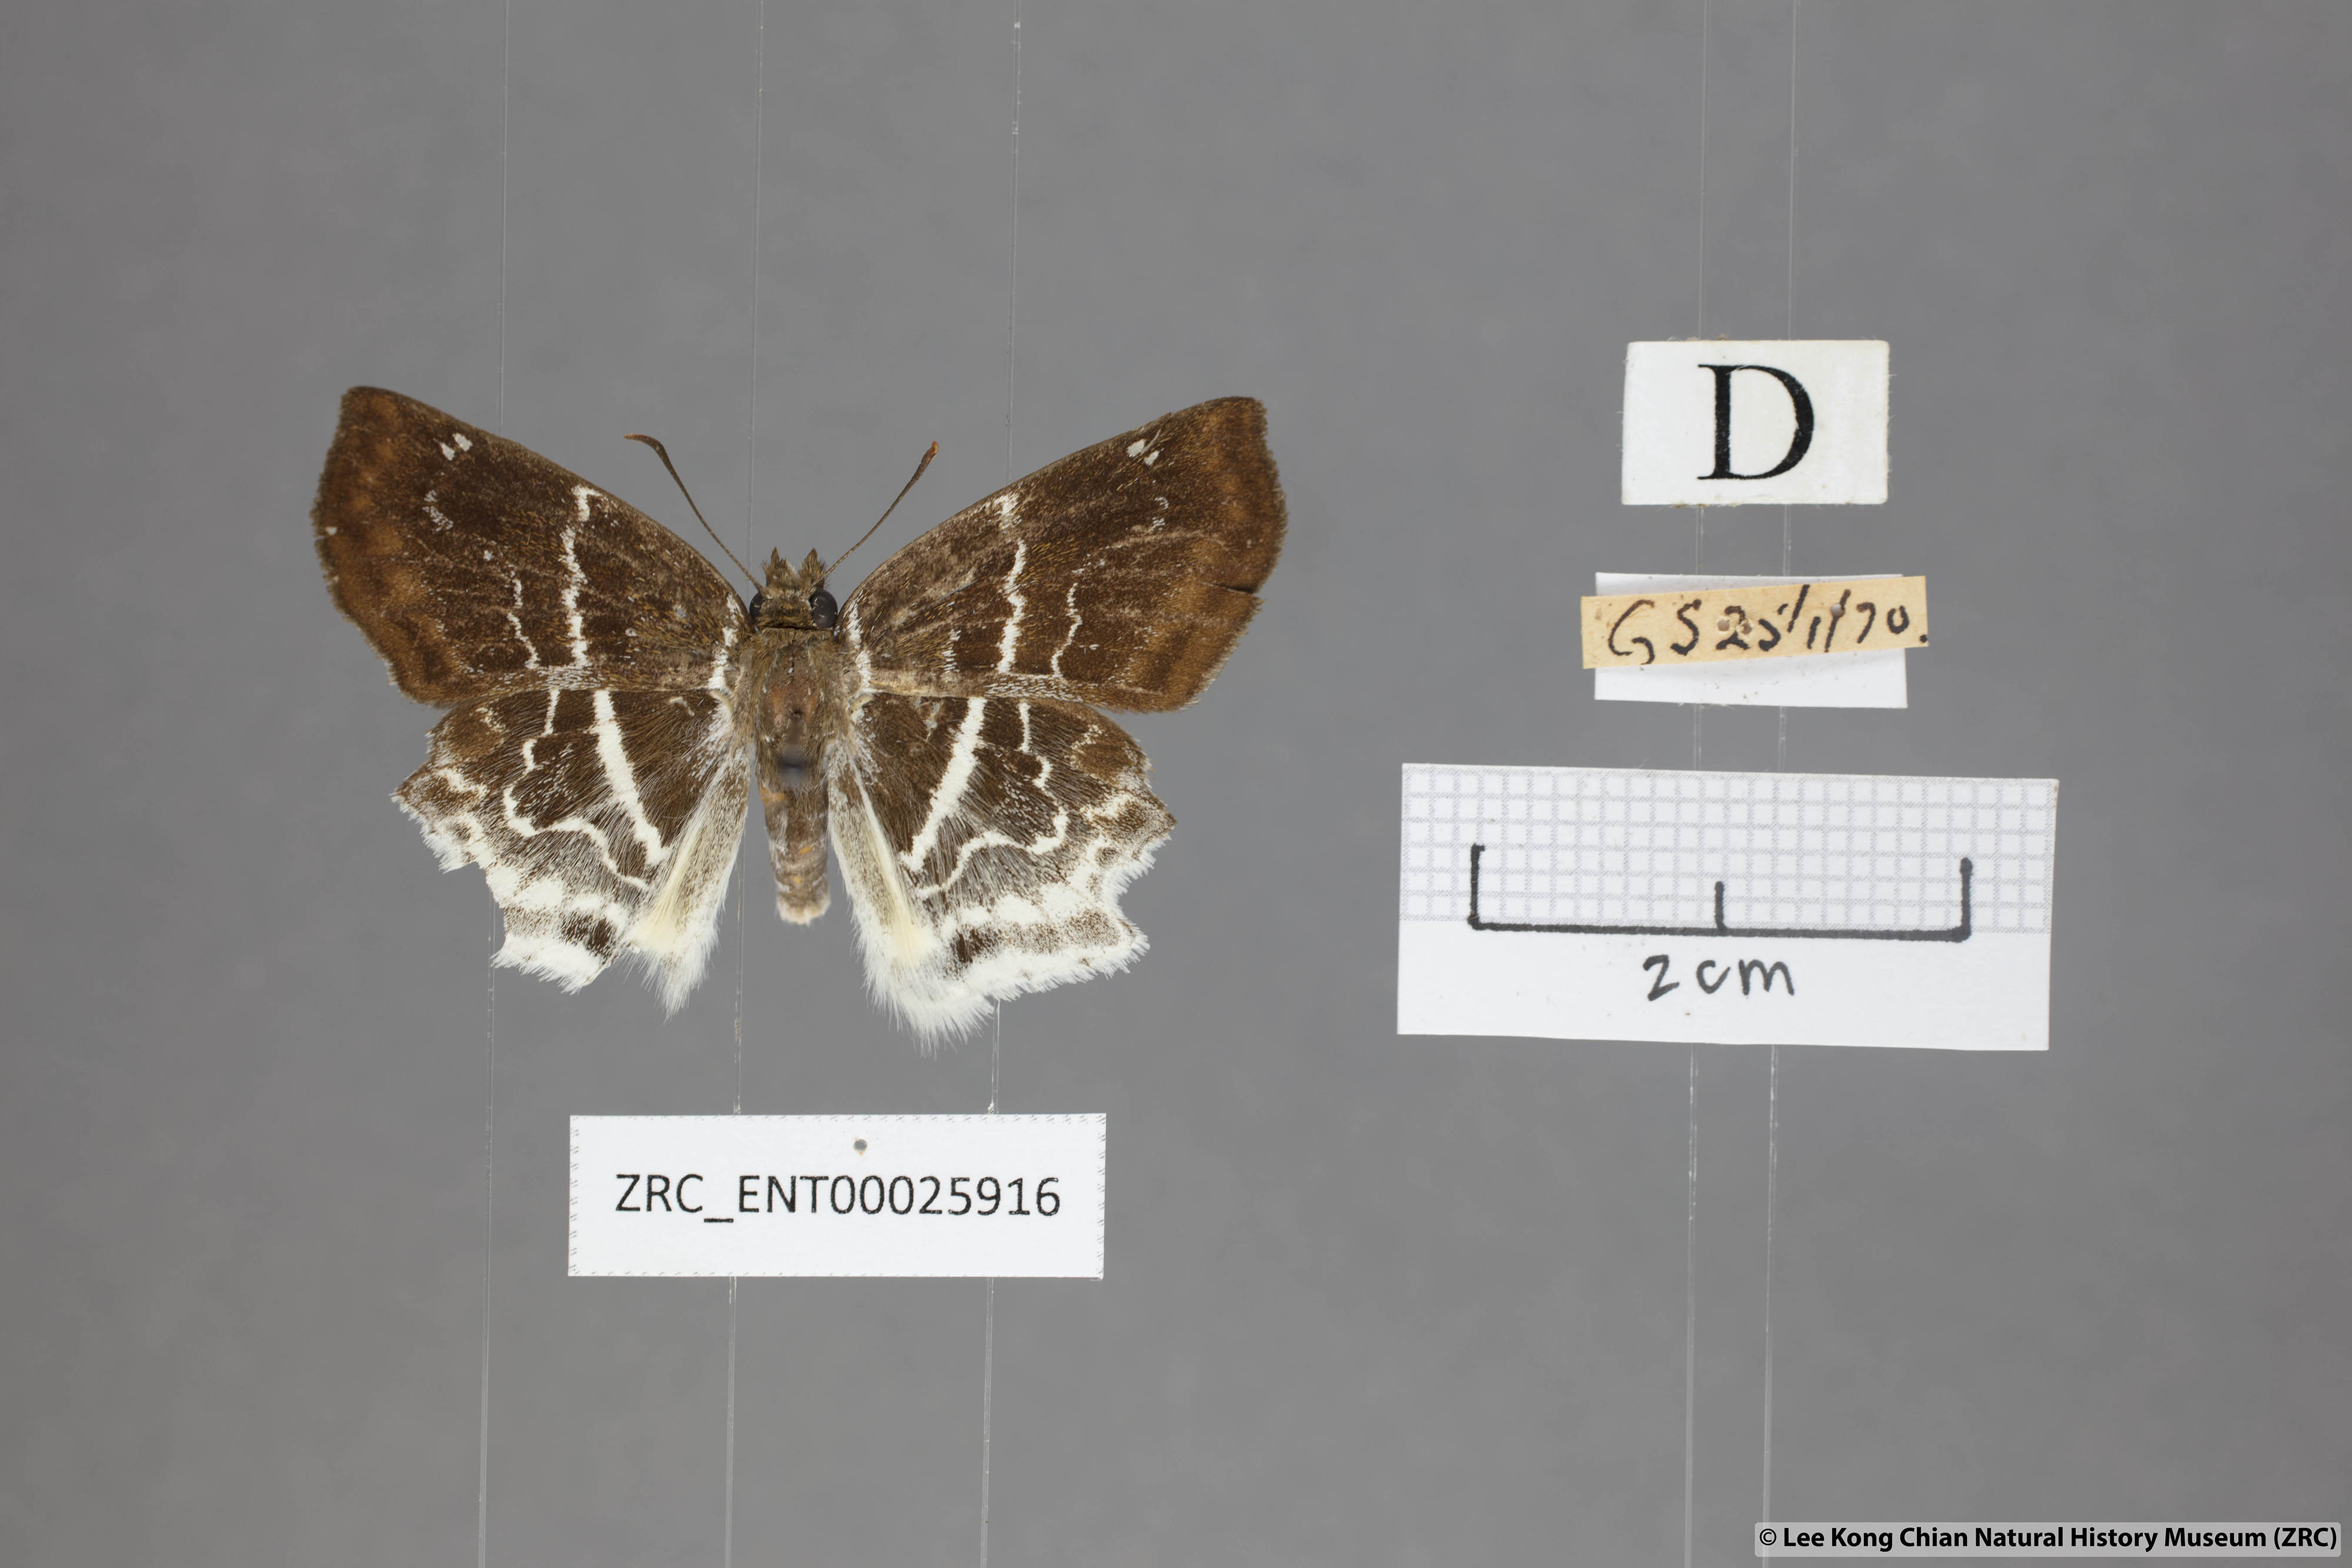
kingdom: Animalia
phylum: Arthropoda
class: Insecta
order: Lepidoptera
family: Hesperiidae
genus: Odontoptilum
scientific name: Odontoptilum pygela
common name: Banded angle
